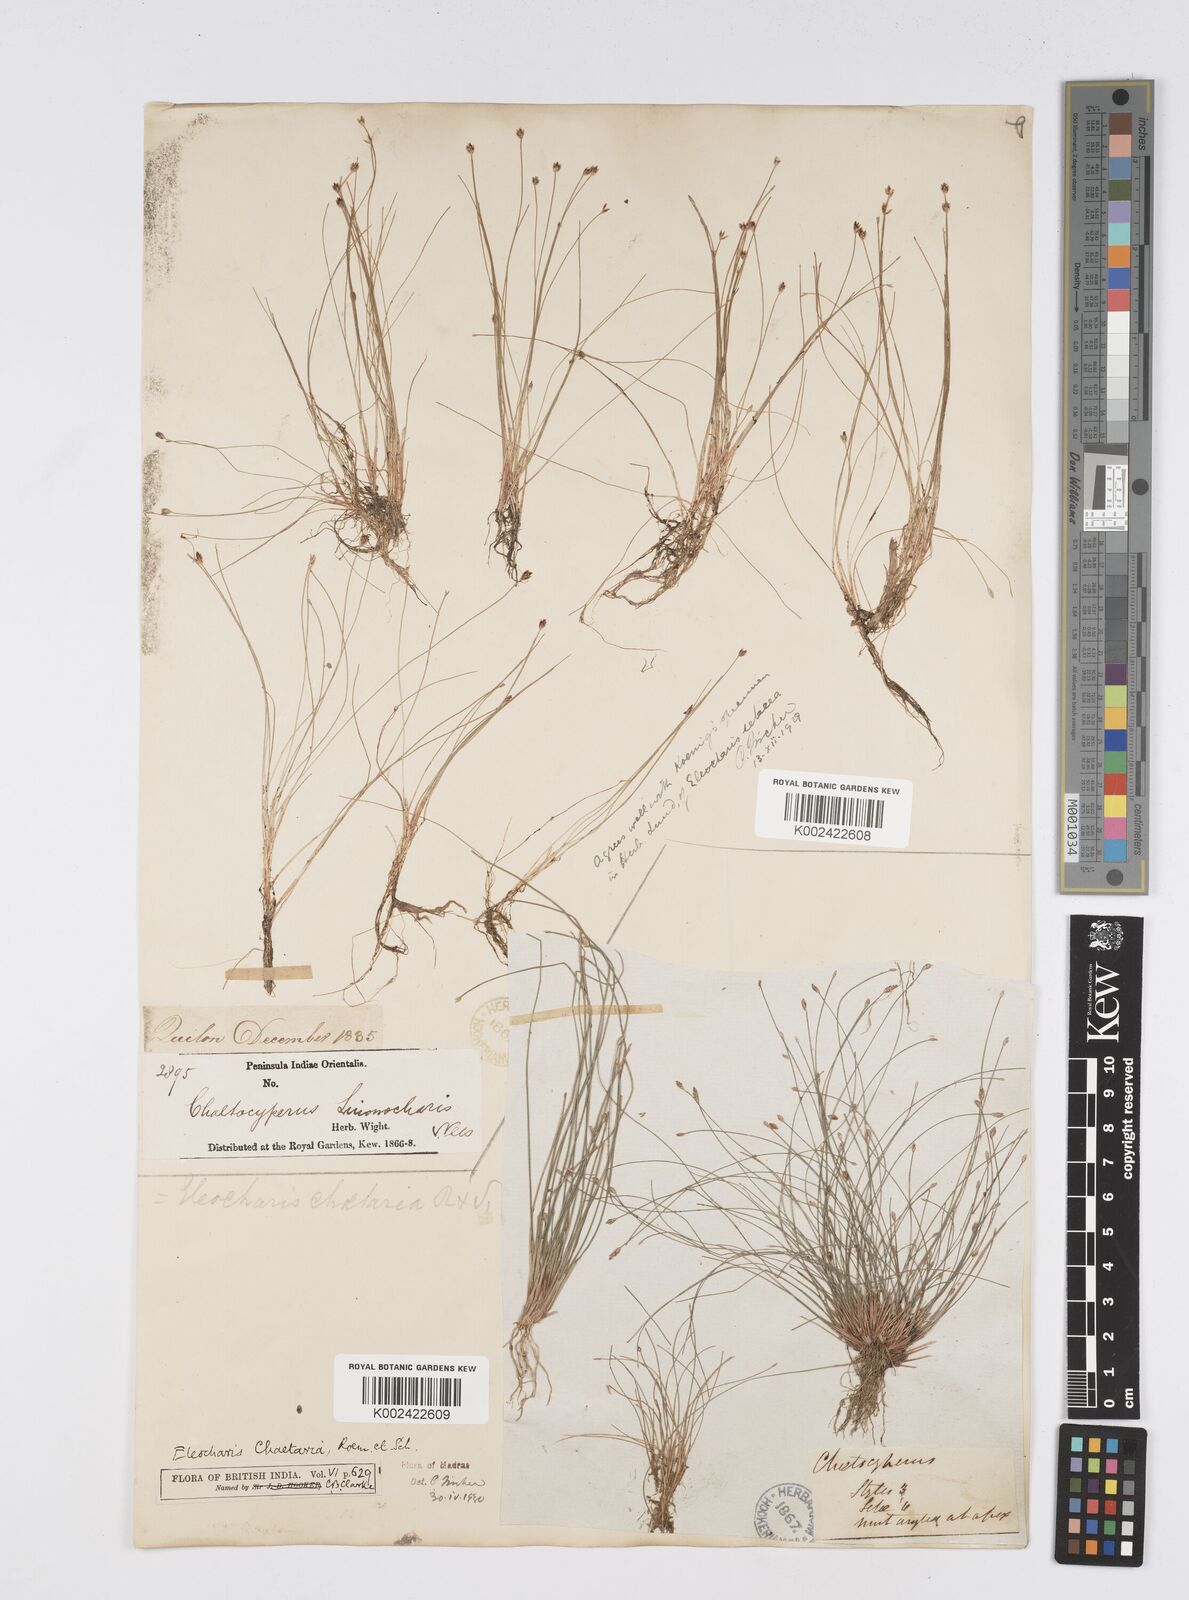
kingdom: Plantae
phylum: Tracheophyta
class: Liliopsida
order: Poales
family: Cyperaceae
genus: Eleocharis
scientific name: Eleocharis retroflexa
